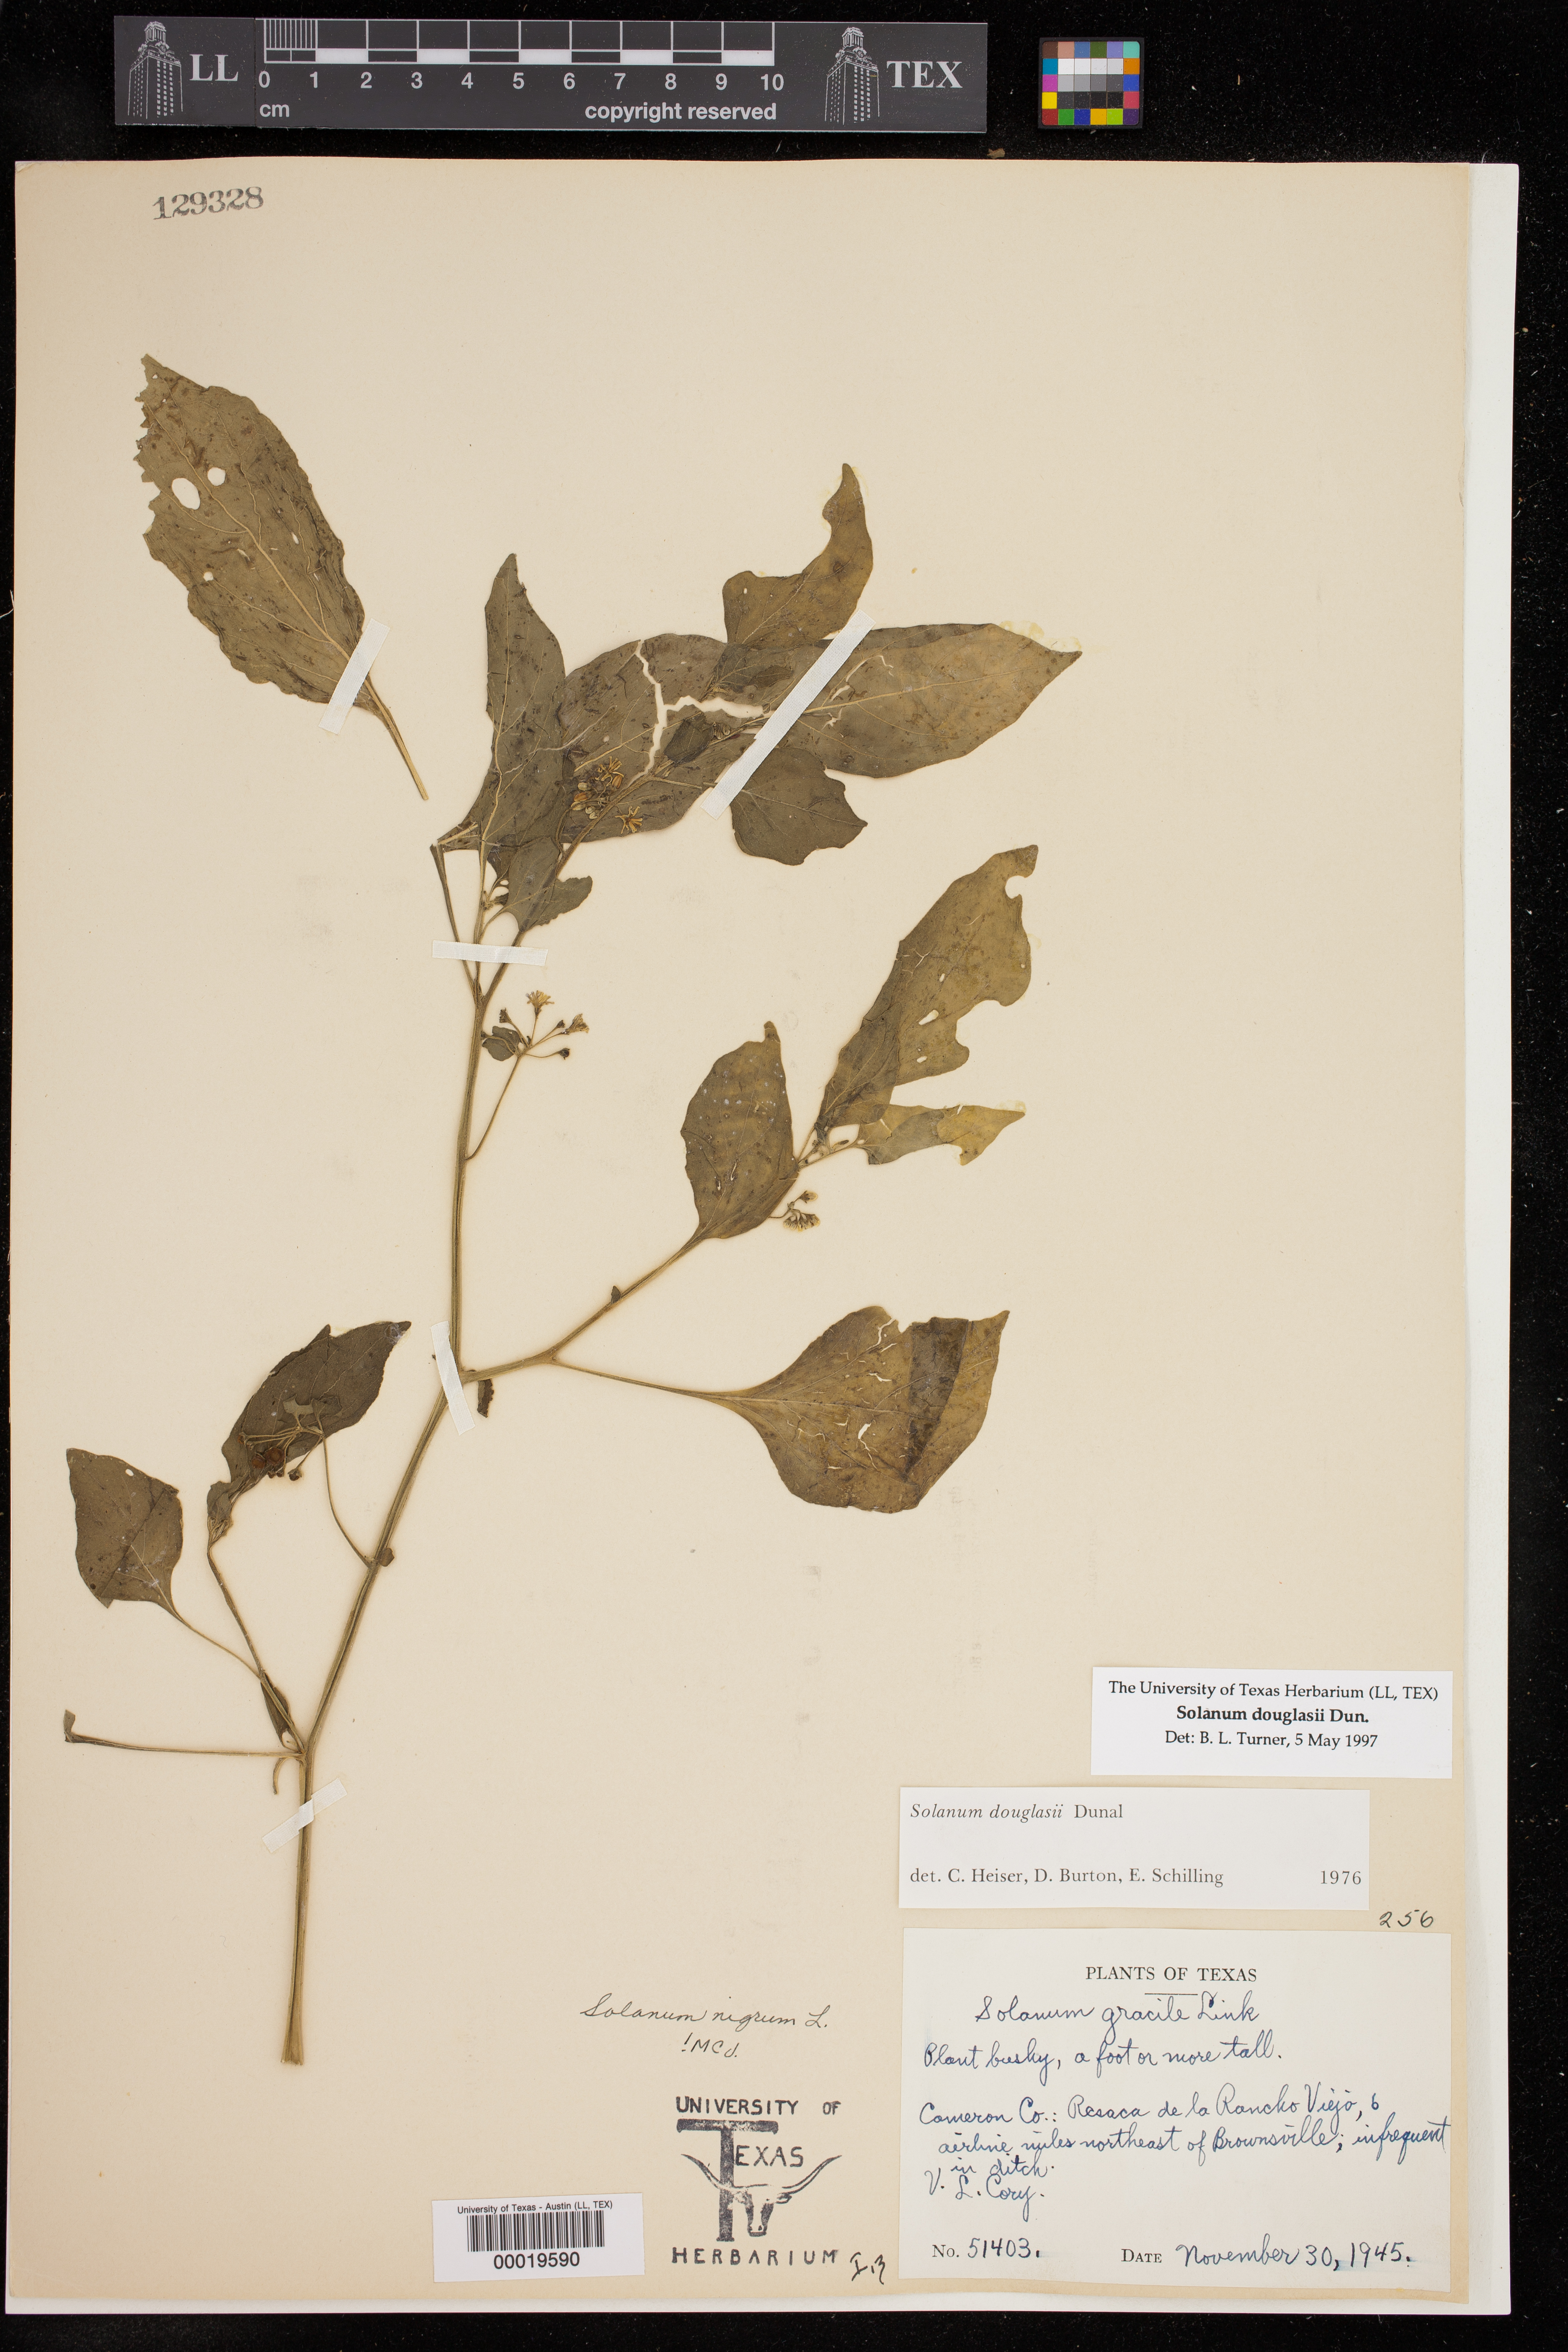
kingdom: Plantae
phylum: Tracheophyta
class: Magnoliopsida
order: Solanales
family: Solanaceae
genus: Solanum
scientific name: Solanum douglasii
